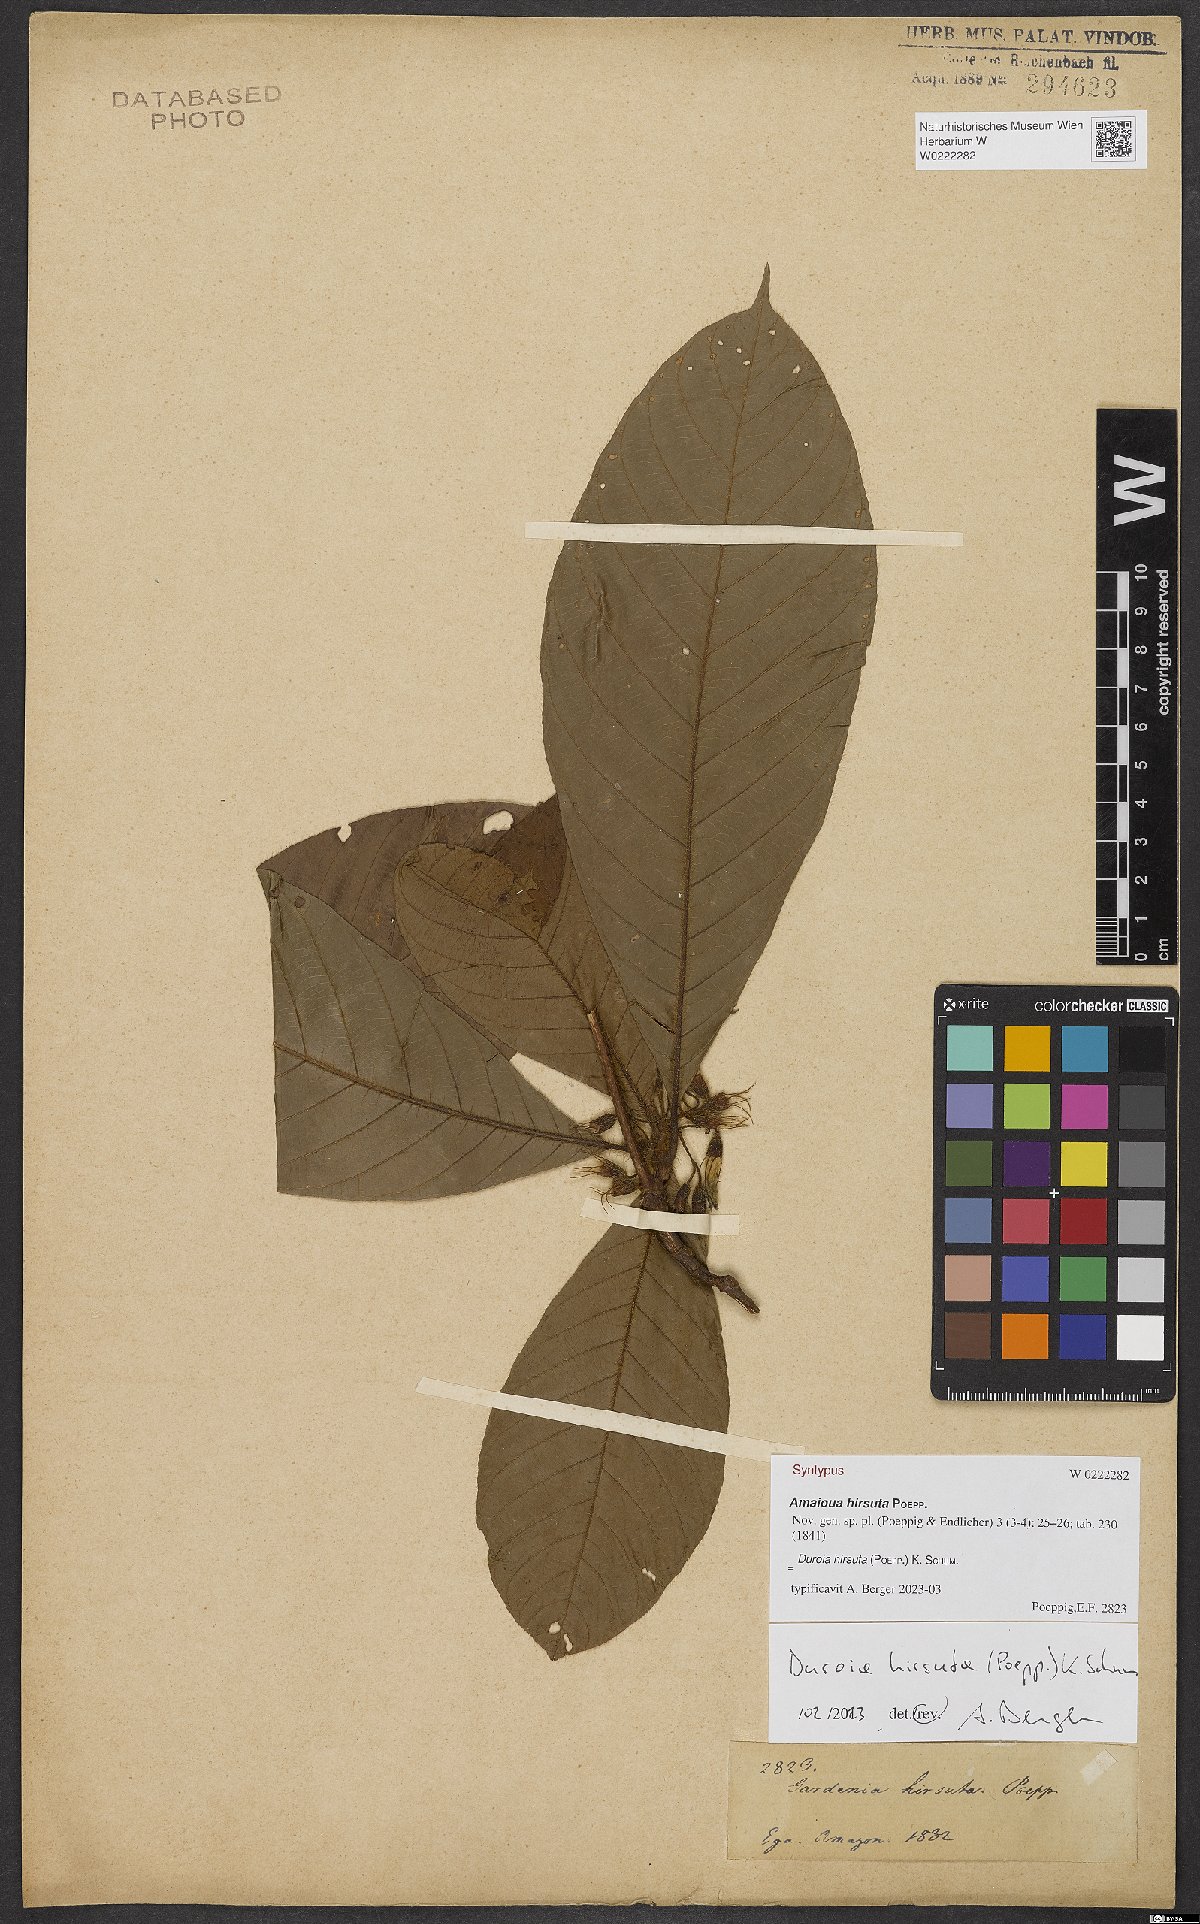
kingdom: Plantae
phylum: Tracheophyta
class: Magnoliopsida
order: Gentianales
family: Rubiaceae
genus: Duroia
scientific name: Duroia hirsuta
